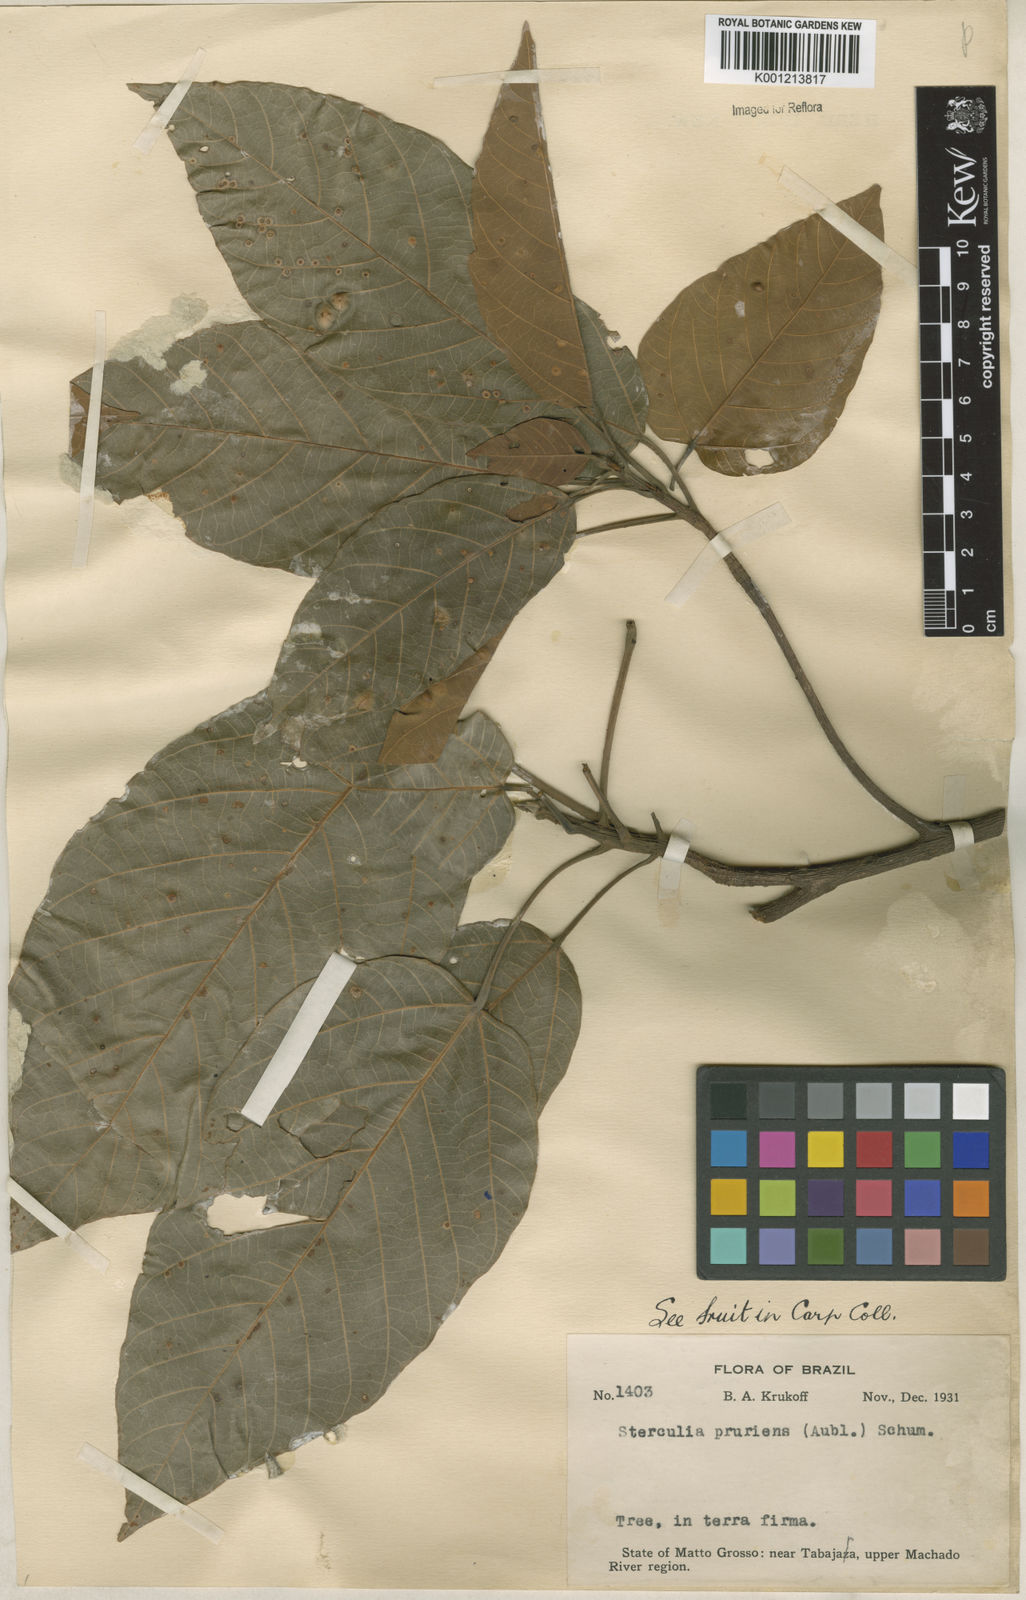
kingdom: Plantae
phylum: Tracheophyta
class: Magnoliopsida
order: Malvales
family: Malvaceae
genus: Sterculia
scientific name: Sterculia pruriens
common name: Grand mahot
